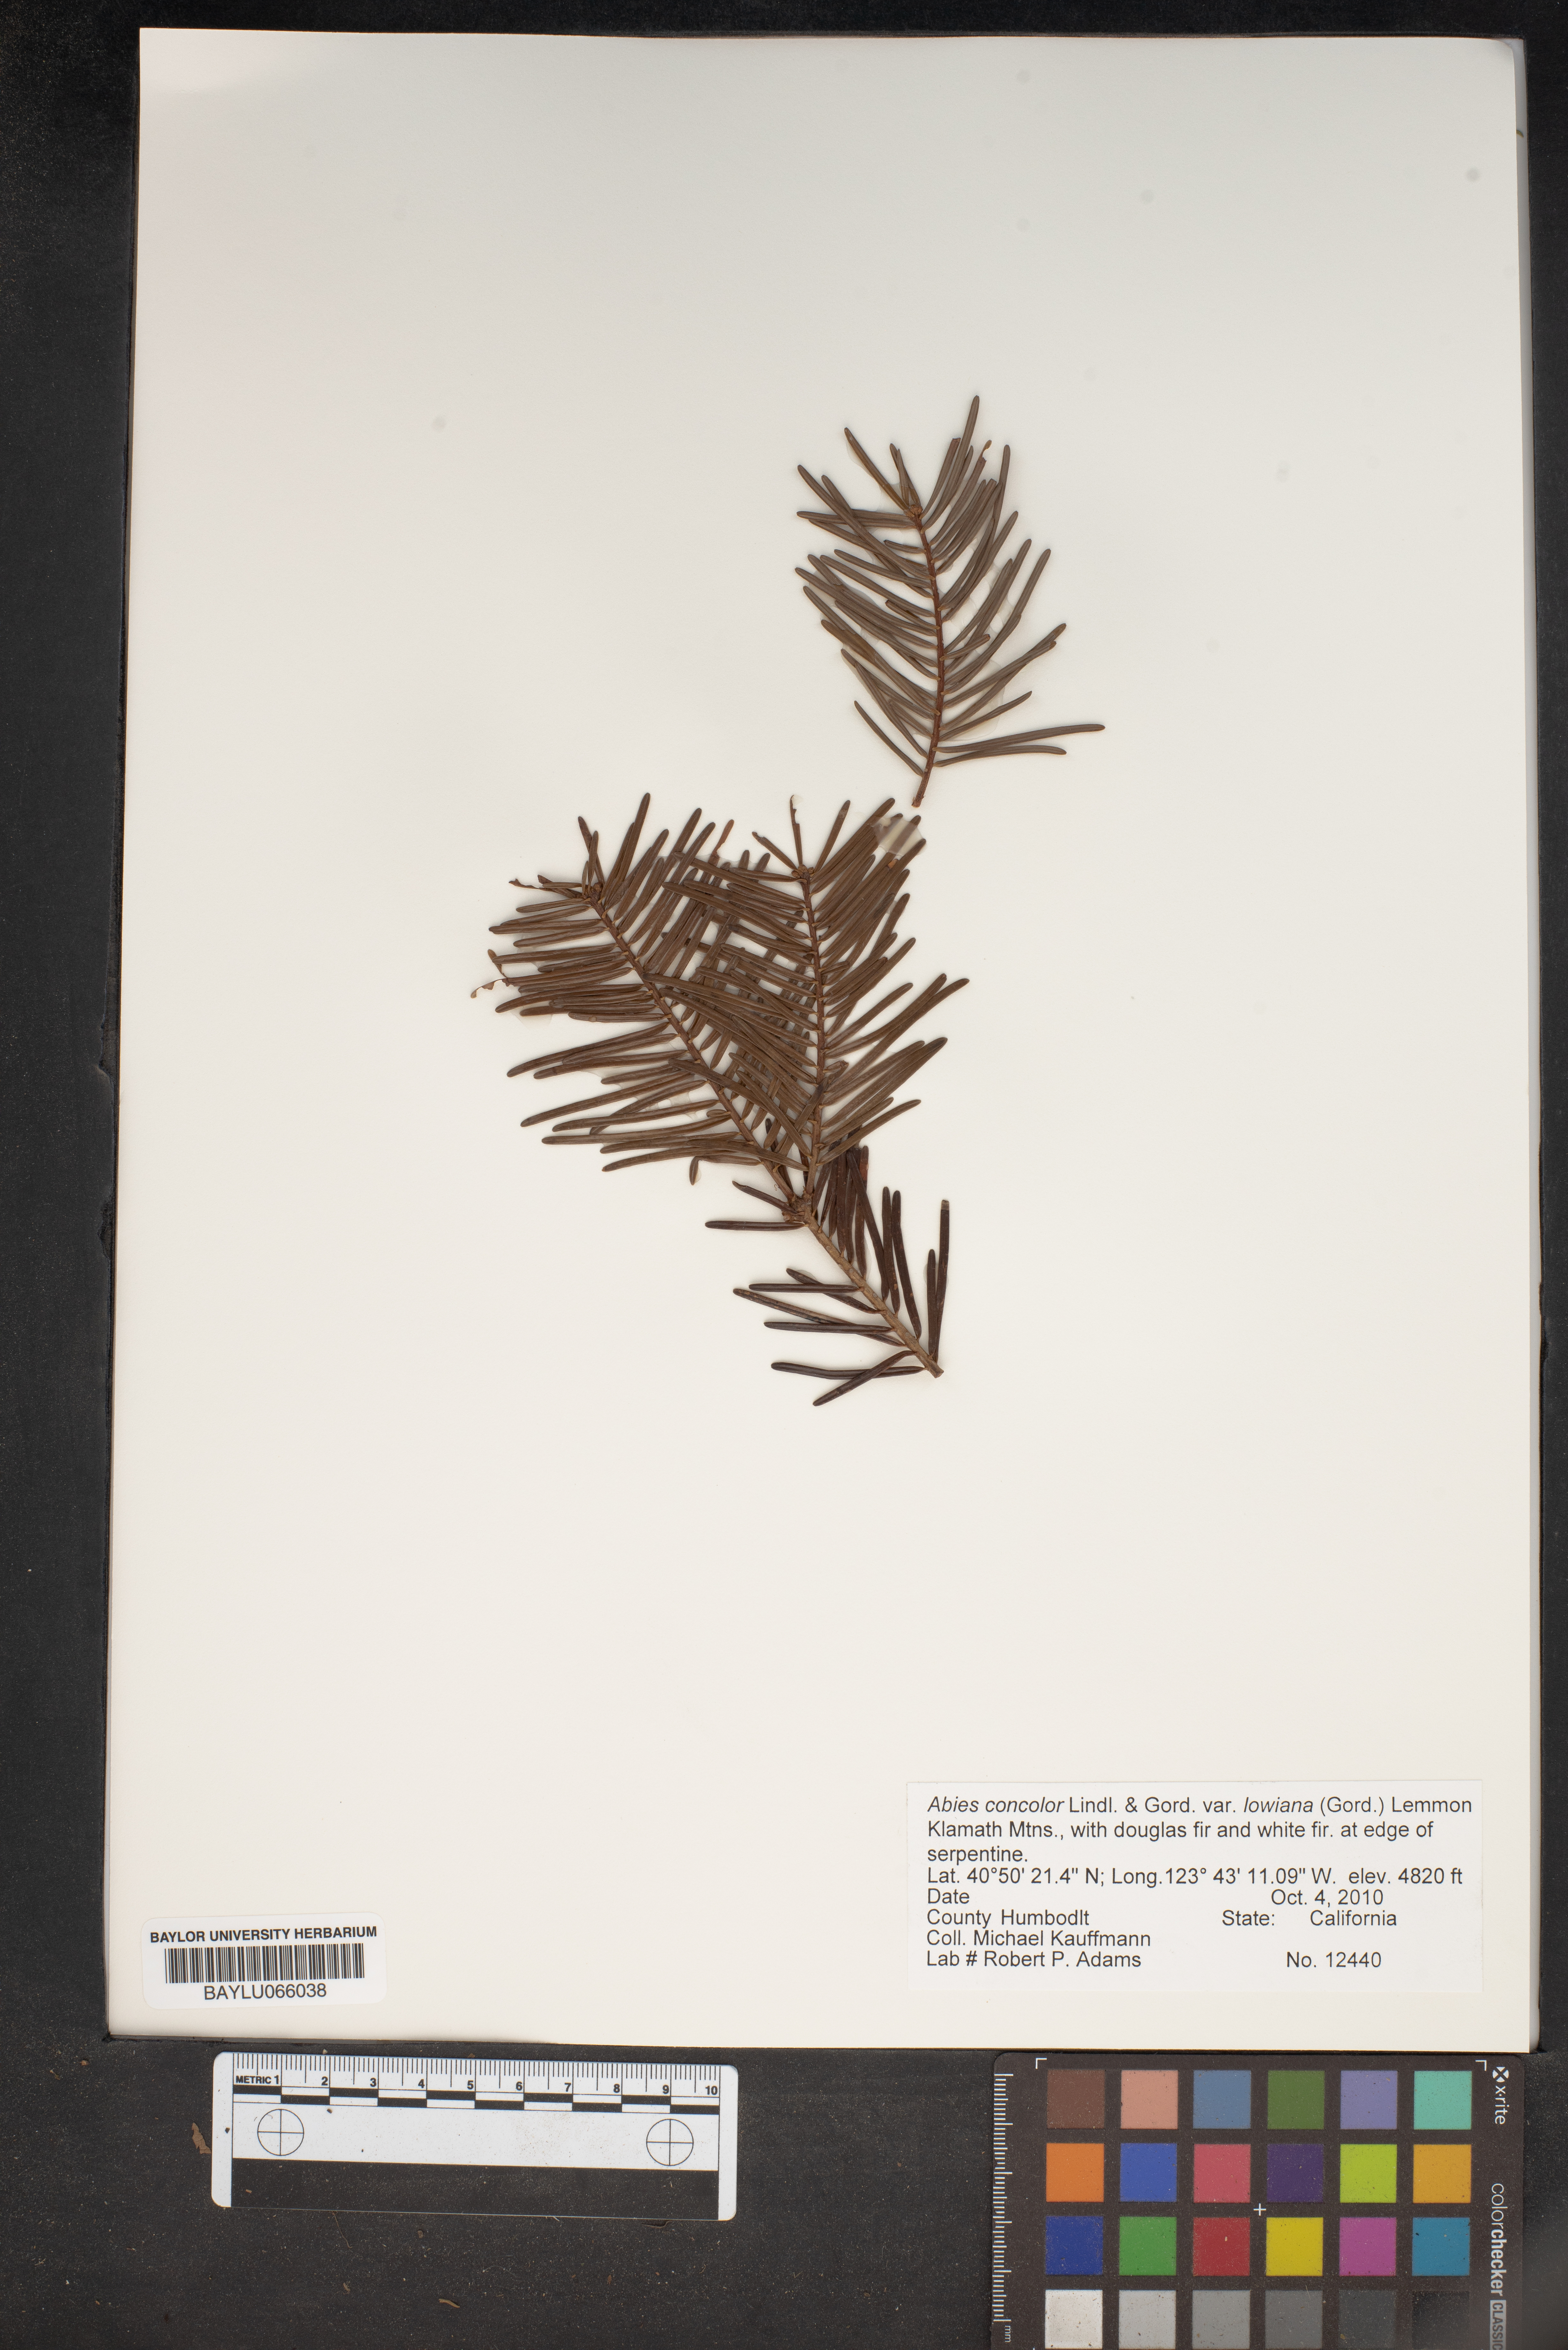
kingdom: Plantae
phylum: Tracheophyta
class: Pinopsida
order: Pinales
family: Pinaceae
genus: Abies
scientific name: Abies concolor
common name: Colorado fir
